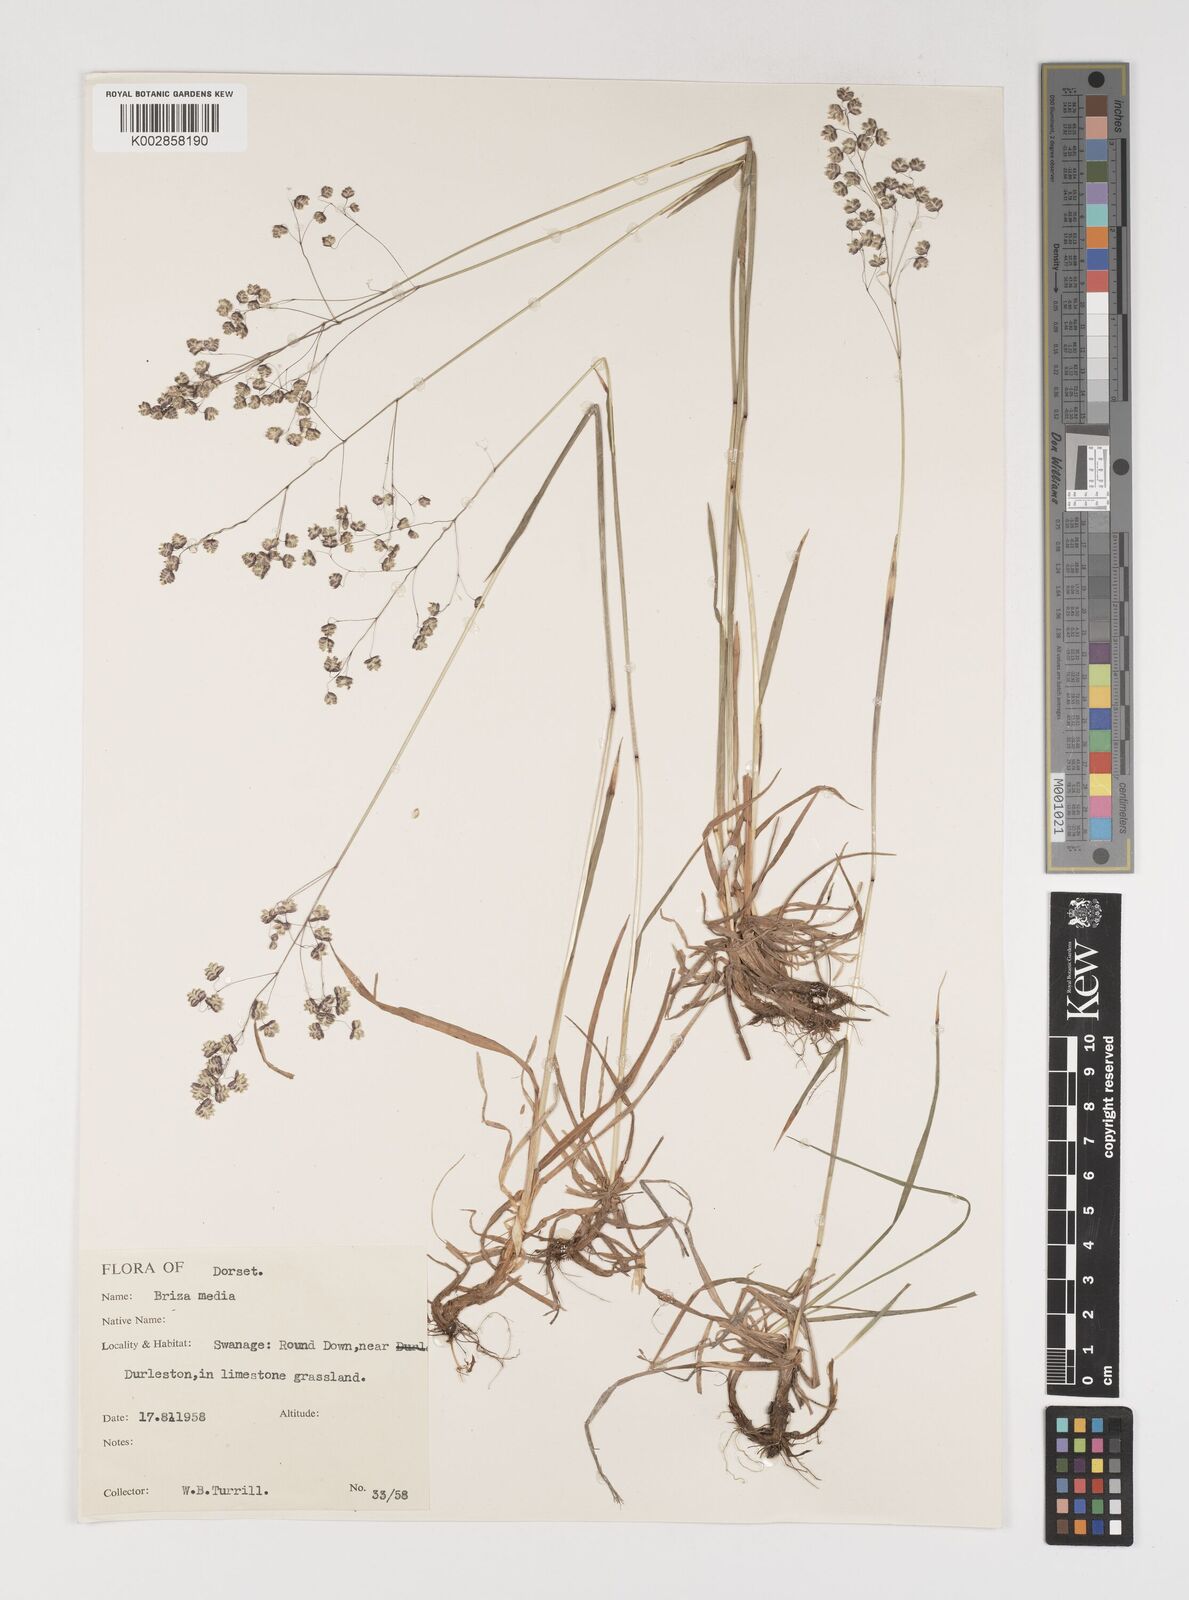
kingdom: Plantae
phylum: Tracheophyta
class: Liliopsida
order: Poales
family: Poaceae
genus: Briza
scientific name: Briza media
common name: Quaking grass
